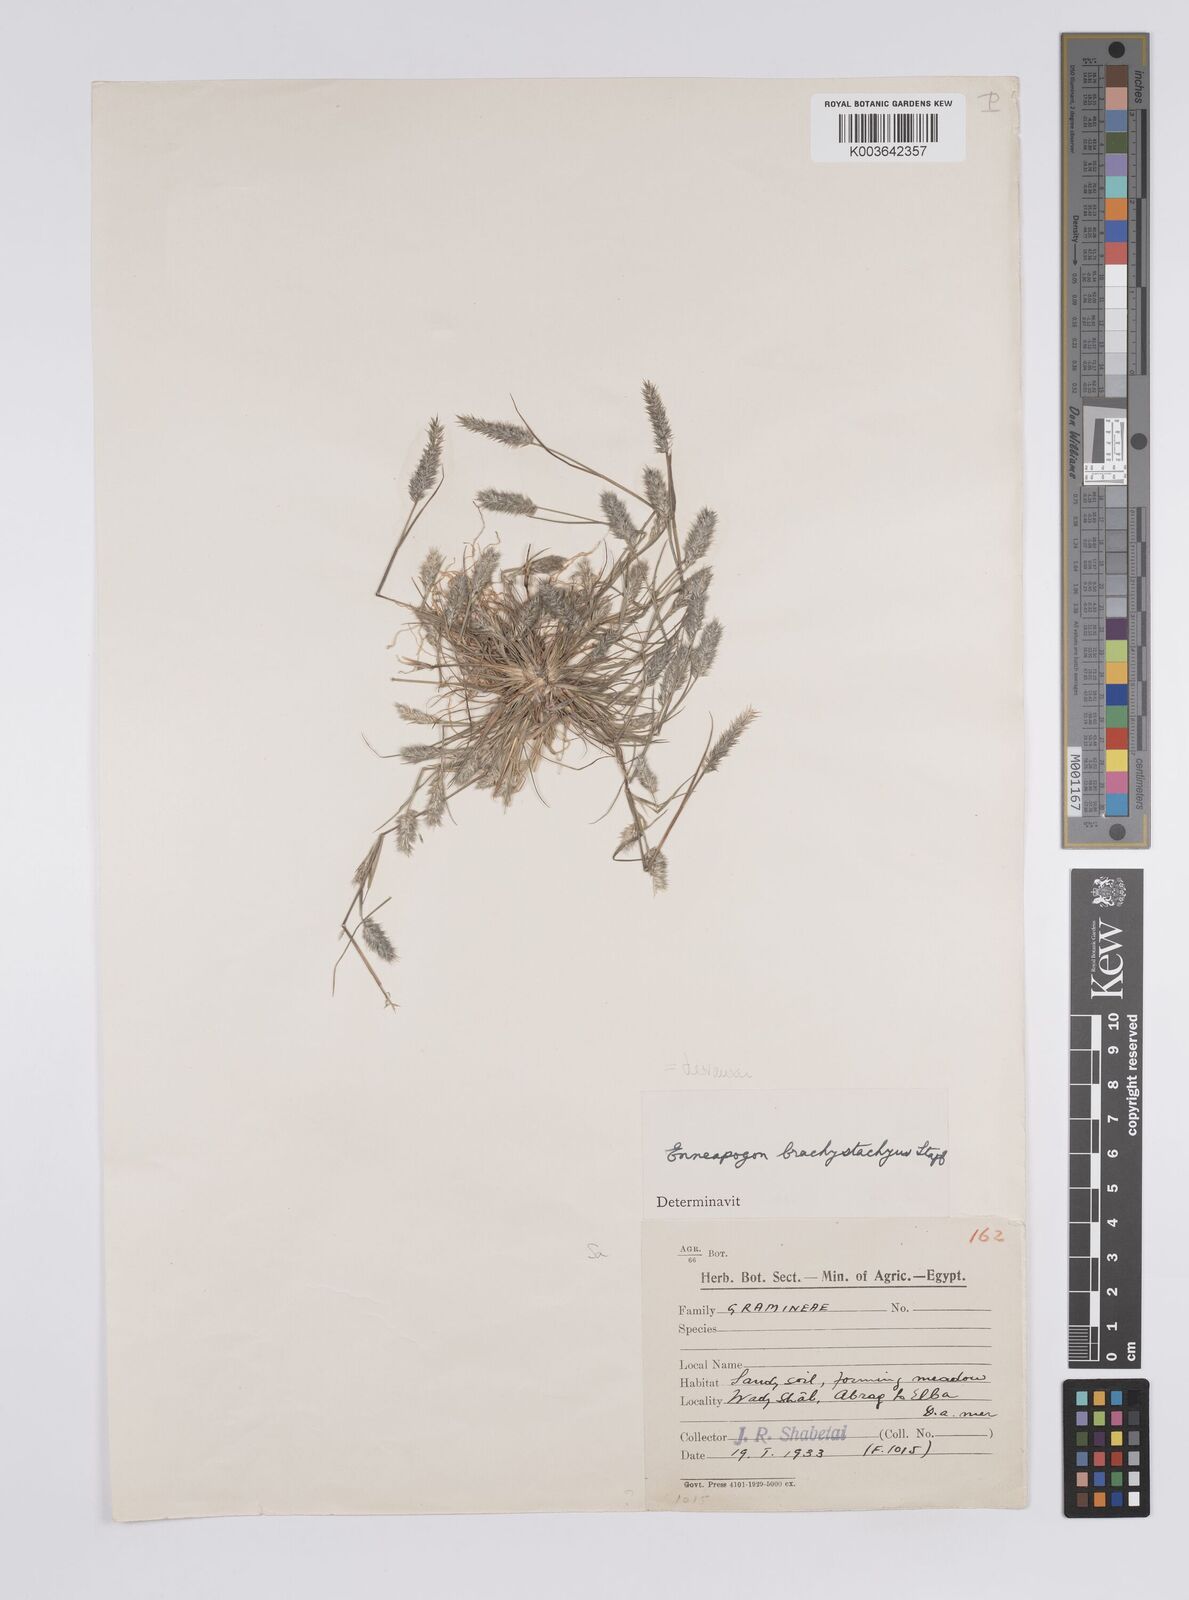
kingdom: Plantae
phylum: Tracheophyta
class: Liliopsida
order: Poales
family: Poaceae
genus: Enneapogon
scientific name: Enneapogon desvauxii
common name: Feather pappus grass
